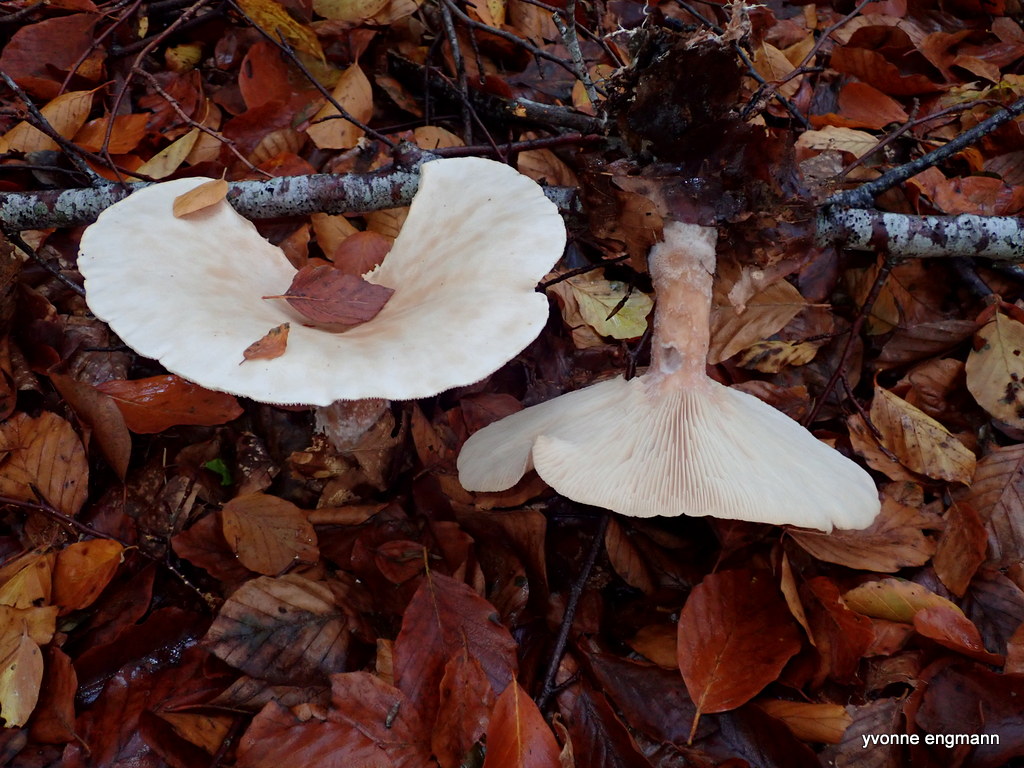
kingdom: Fungi
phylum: Basidiomycota
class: Agaricomycetes
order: Agaricales
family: Tricholomataceae
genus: Infundibulicybe
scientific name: Infundibulicybe geotropa
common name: stor tragthat
